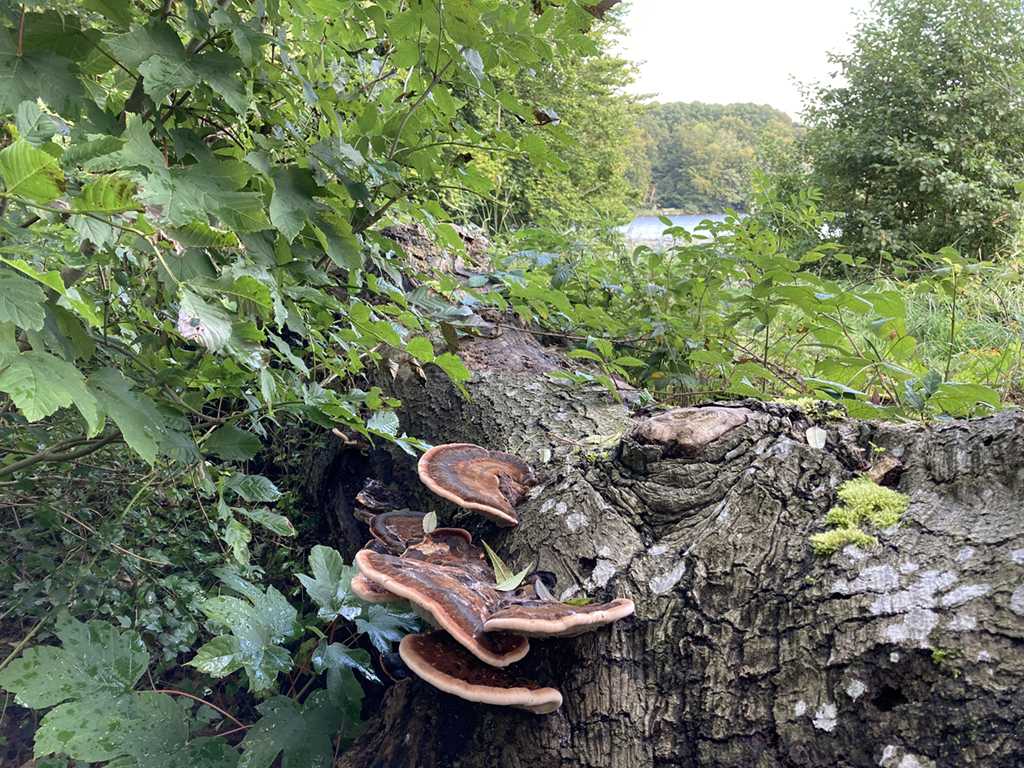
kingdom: Fungi
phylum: Basidiomycota
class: Agaricomycetes
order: Polyporales
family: Ischnodermataceae
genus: Ischnoderma
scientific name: Ischnoderma resinosum
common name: løv-tjæreporesvamp
